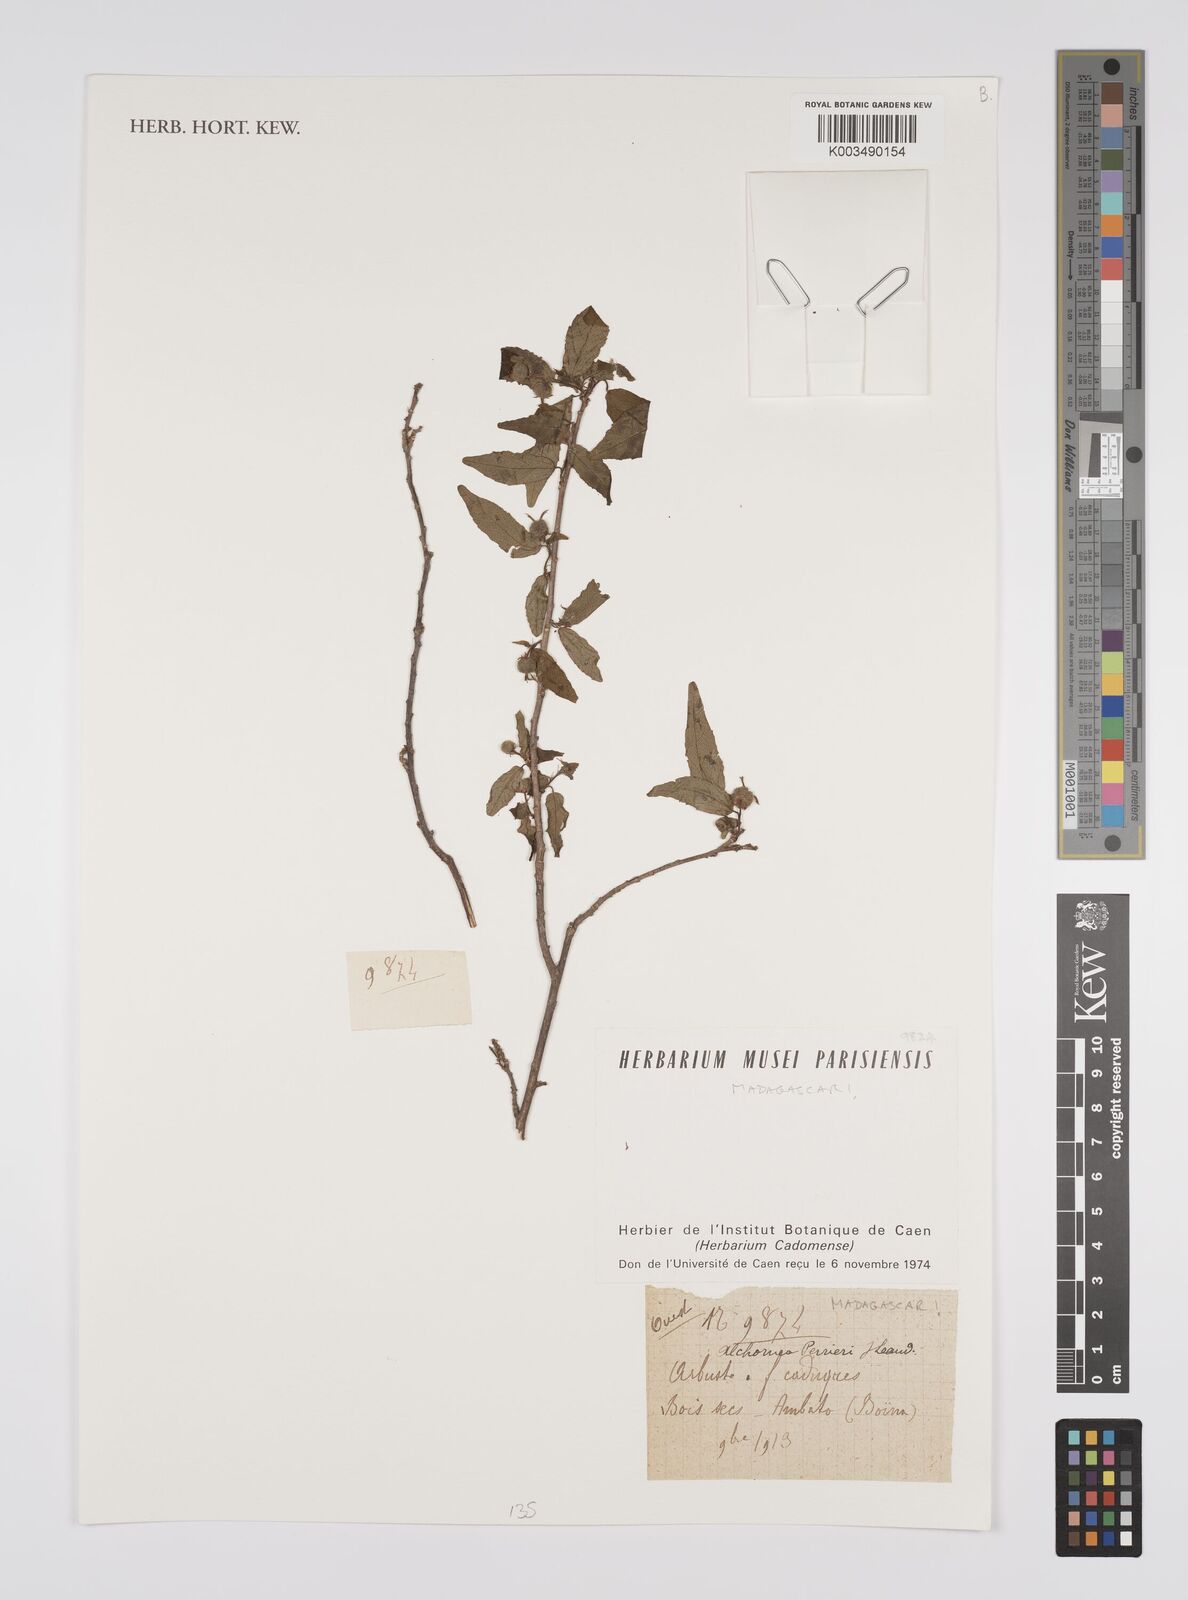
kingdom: Plantae
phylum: Tracheophyta
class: Magnoliopsida
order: Malpighiales
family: Euphorbiaceae
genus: Alchornea
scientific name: Alchornea perrieri
